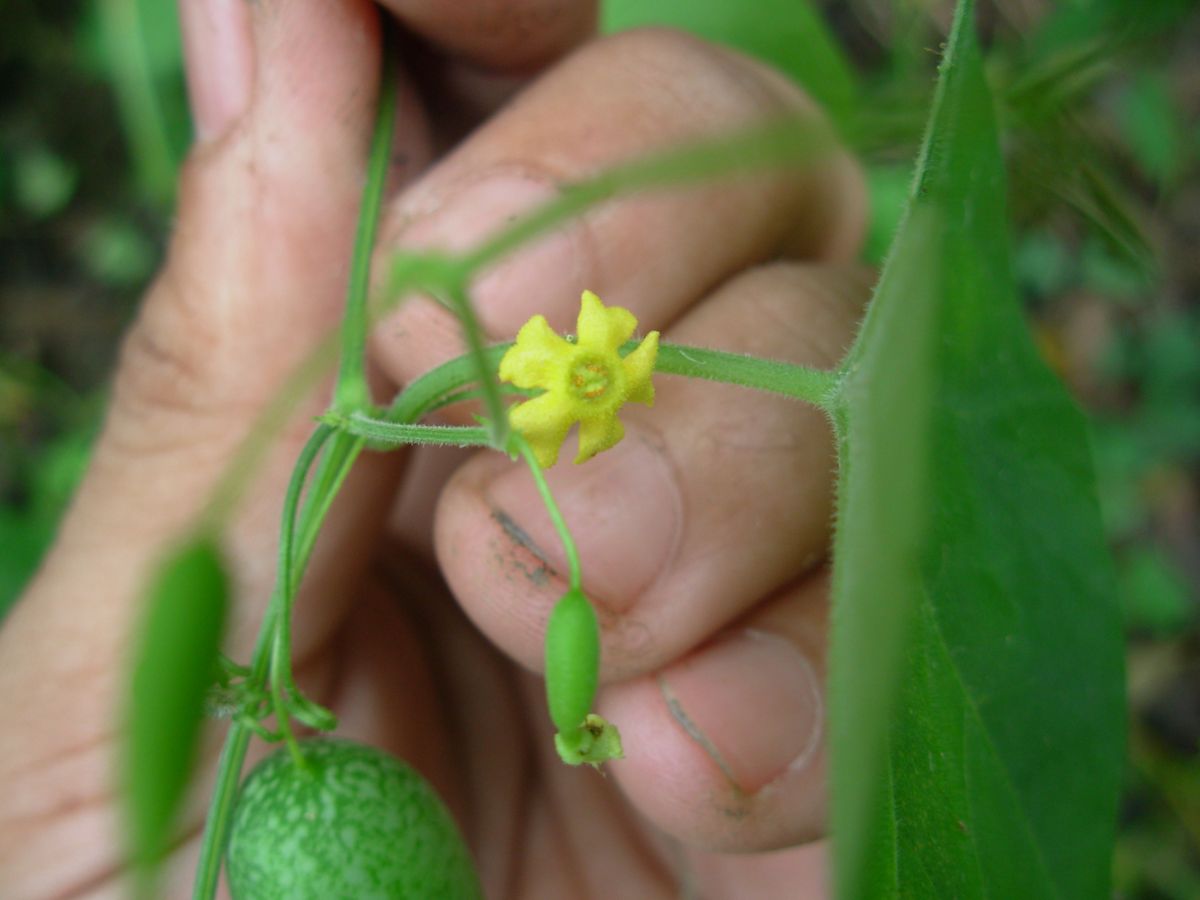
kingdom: Plantae
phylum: Tracheophyta
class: Magnoliopsida
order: Cucurbitales
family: Cucurbitaceae
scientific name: Cucurbitaceae
